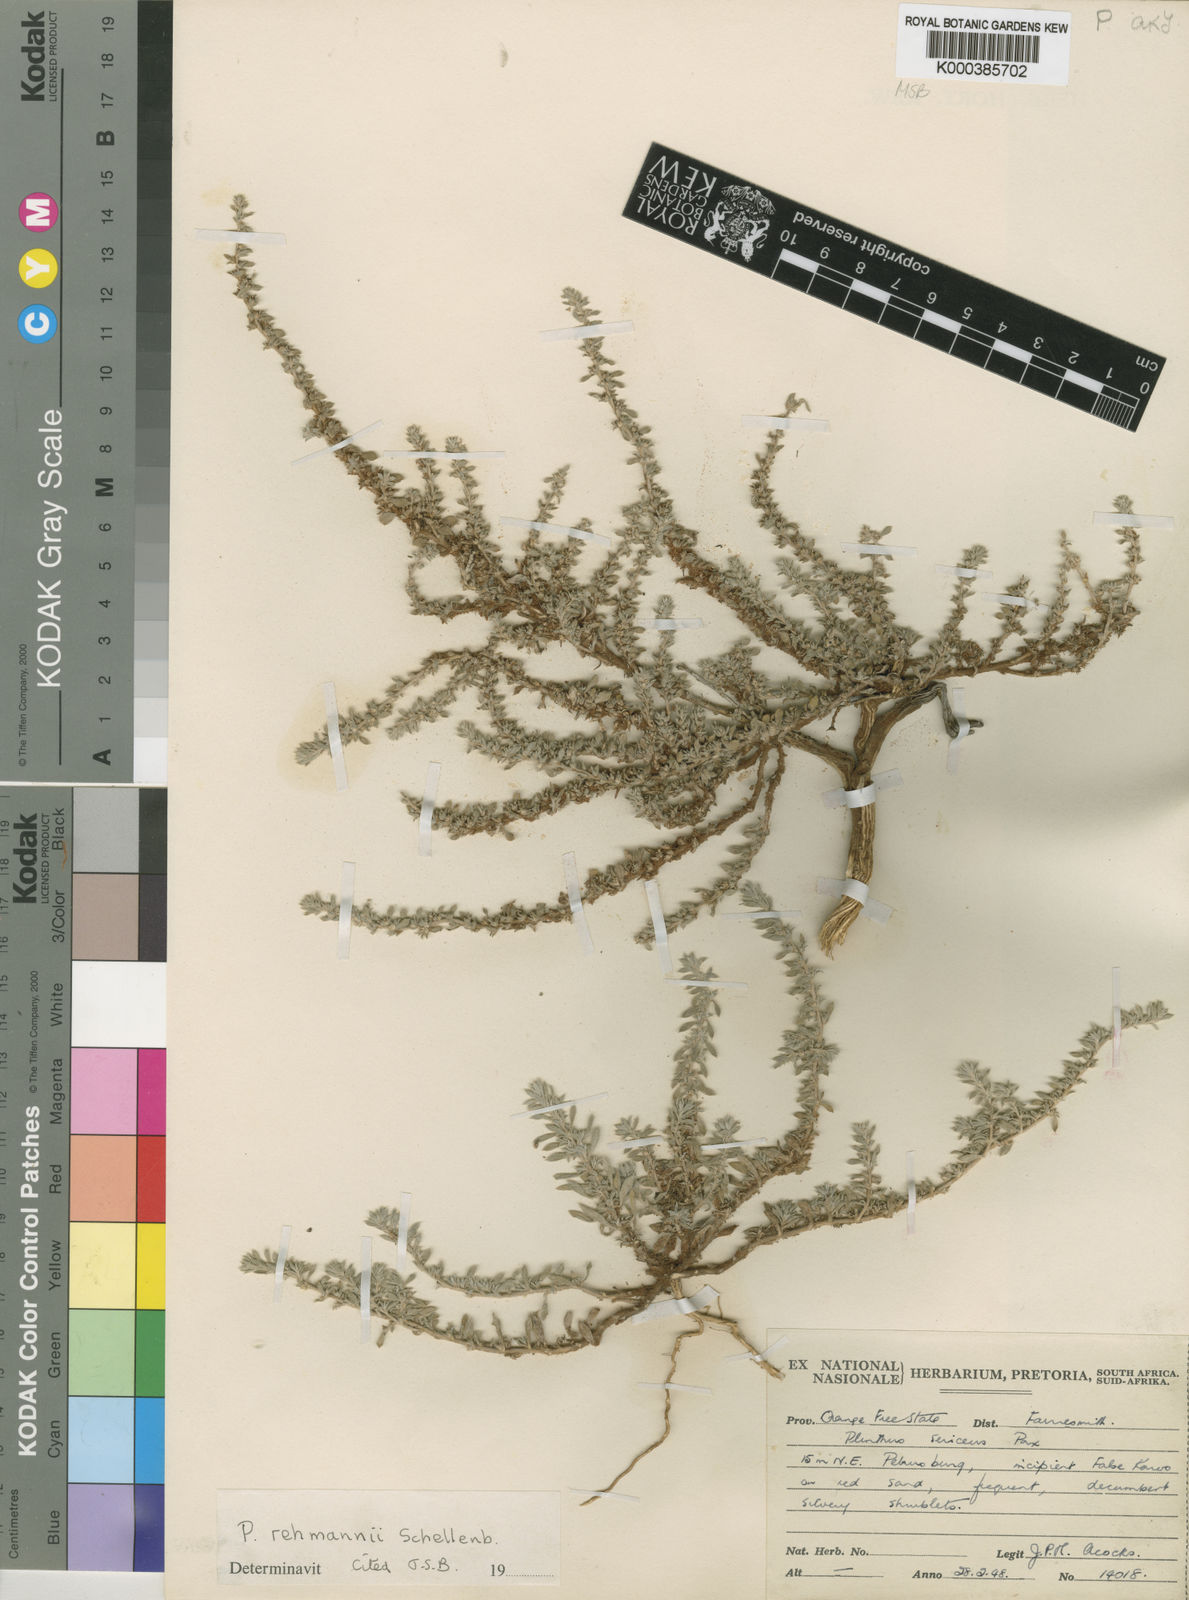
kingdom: Plantae
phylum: Tracheophyta
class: Magnoliopsida
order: Caryophyllales
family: Aizoaceae
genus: Aizoon
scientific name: Aizoon rehmannii
